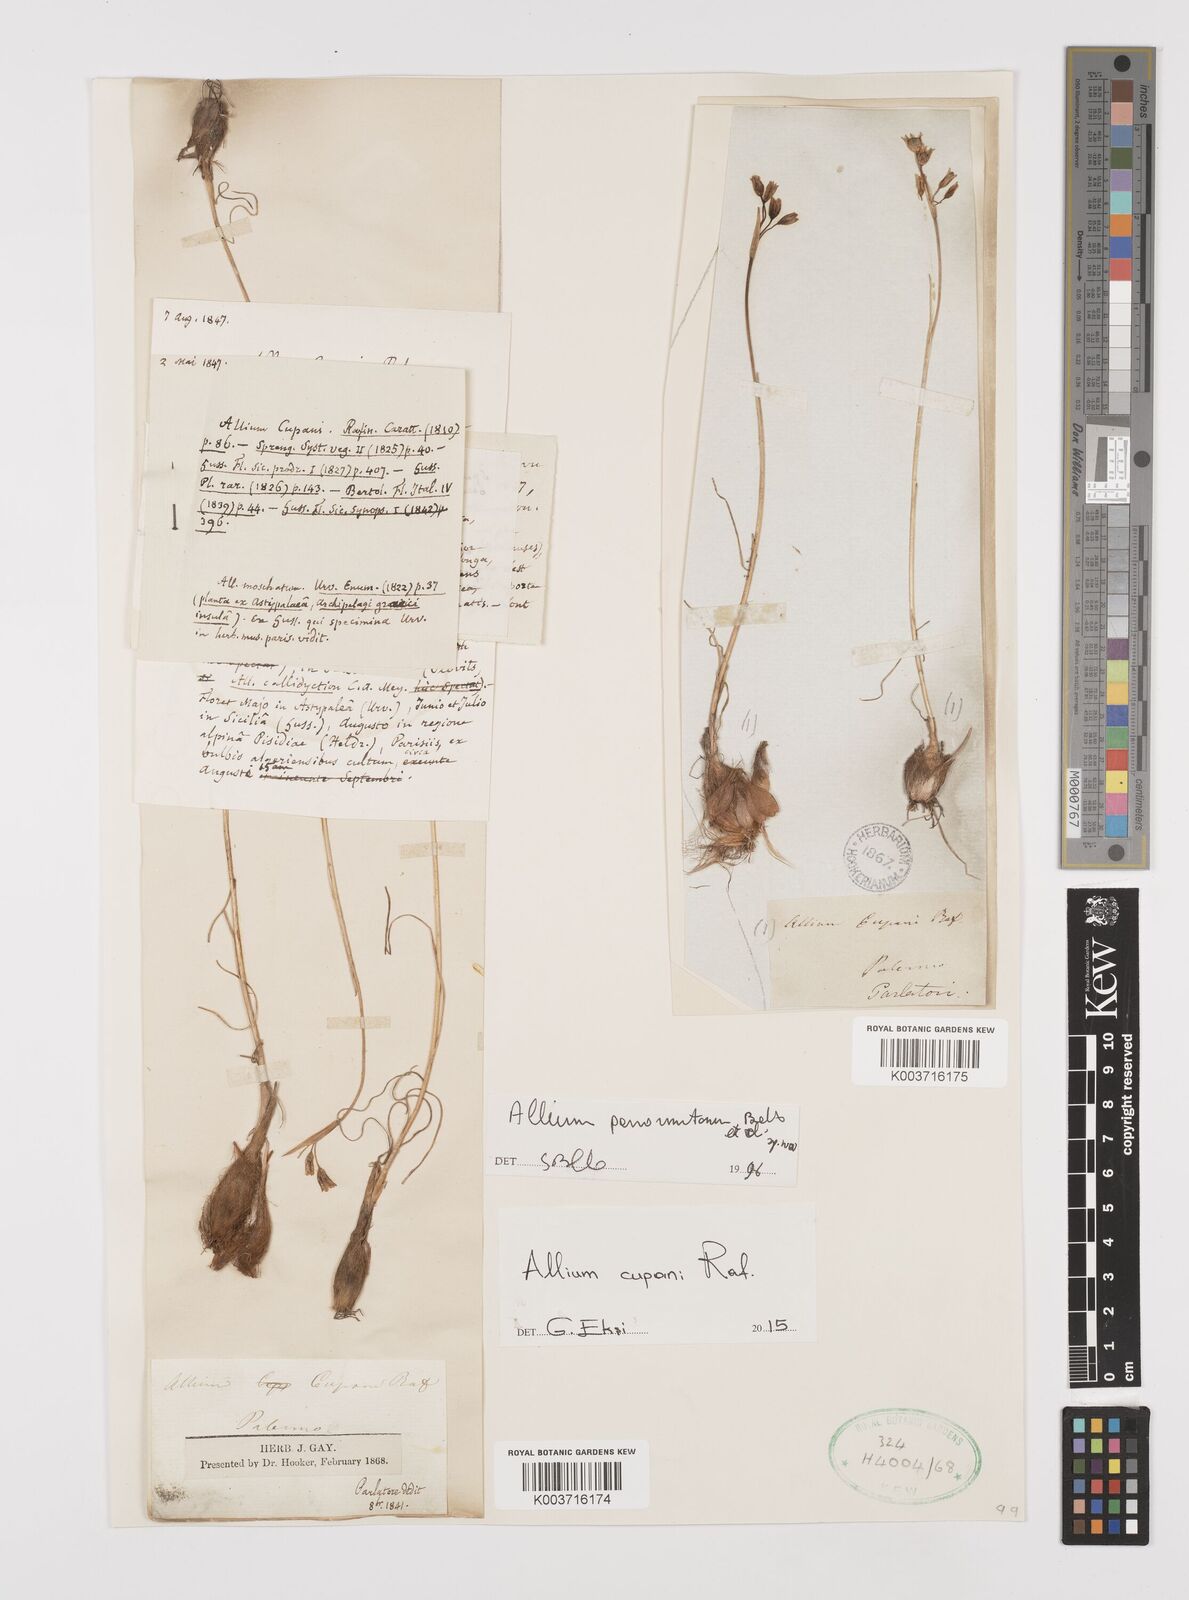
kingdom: Plantae
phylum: Tracheophyta
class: Liliopsida
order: Asparagales
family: Amaryllidaceae
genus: Allium
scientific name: Allium cupani
